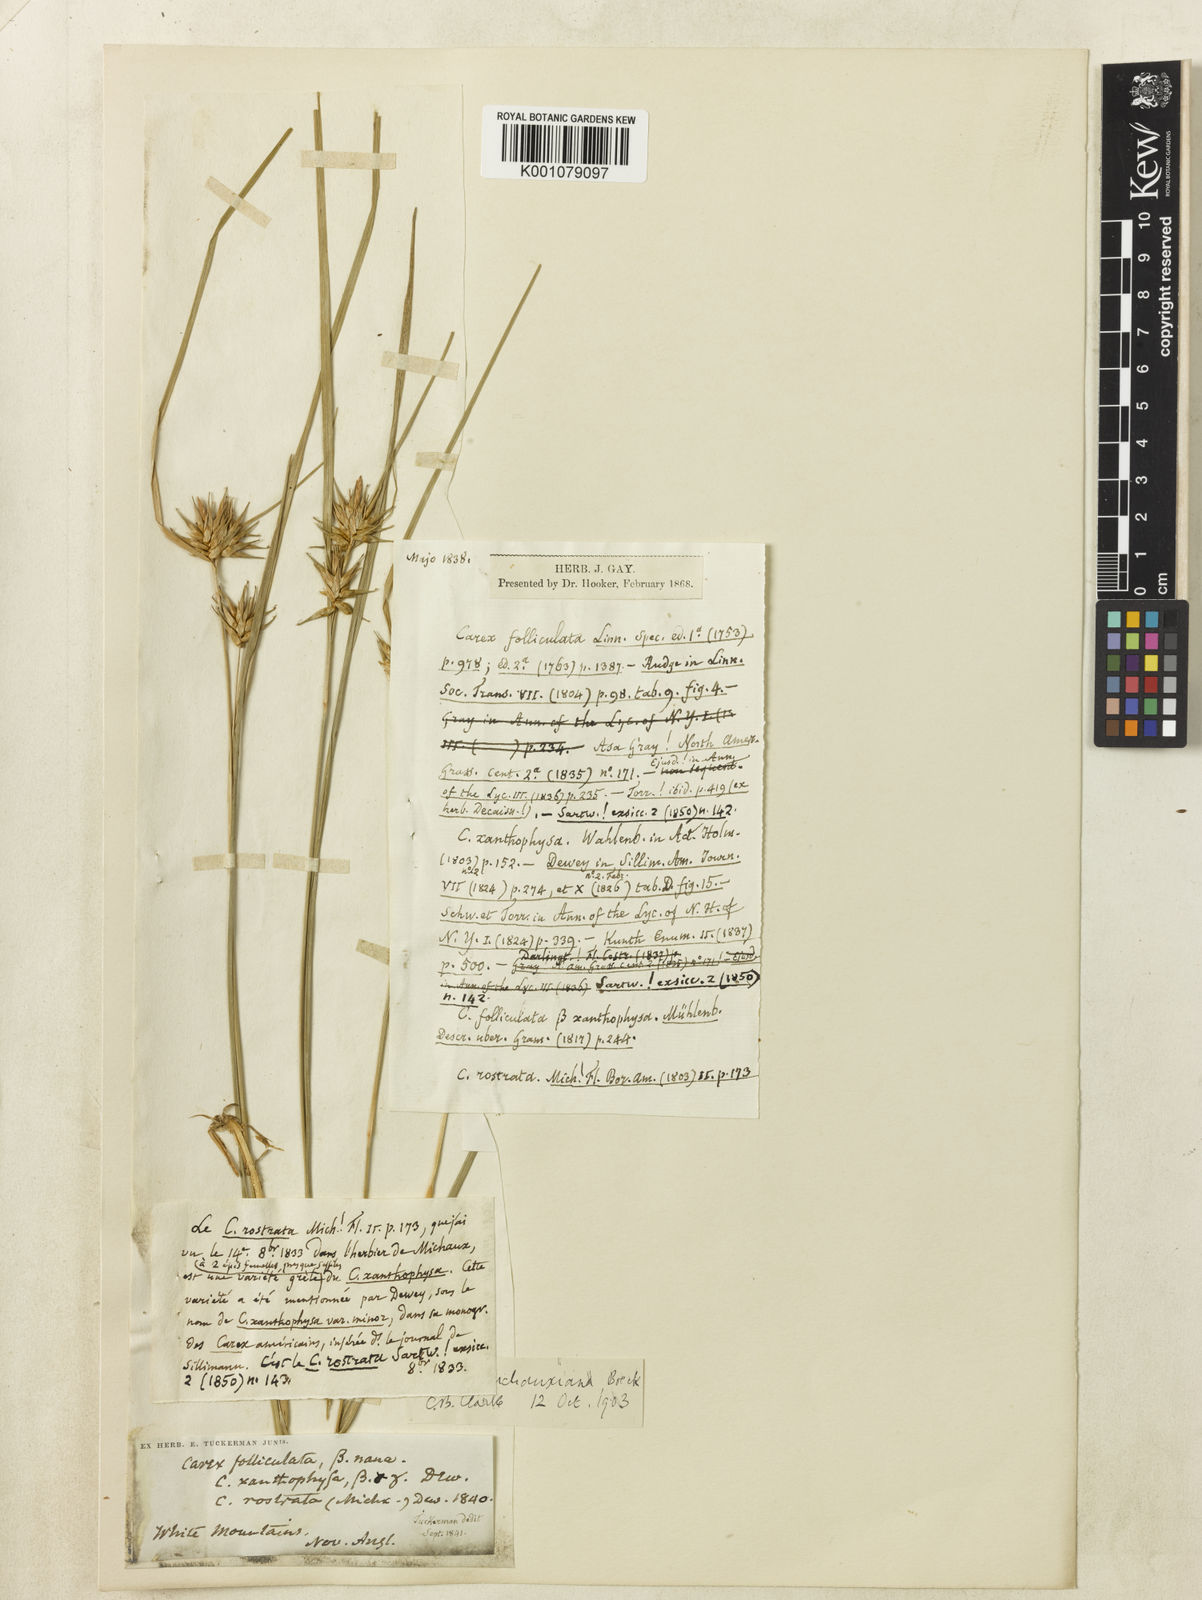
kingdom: Plantae
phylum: Tracheophyta
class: Liliopsida
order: Poales
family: Cyperaceae
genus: Carex
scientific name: Carex michauxiana
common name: Michaux's sedge
